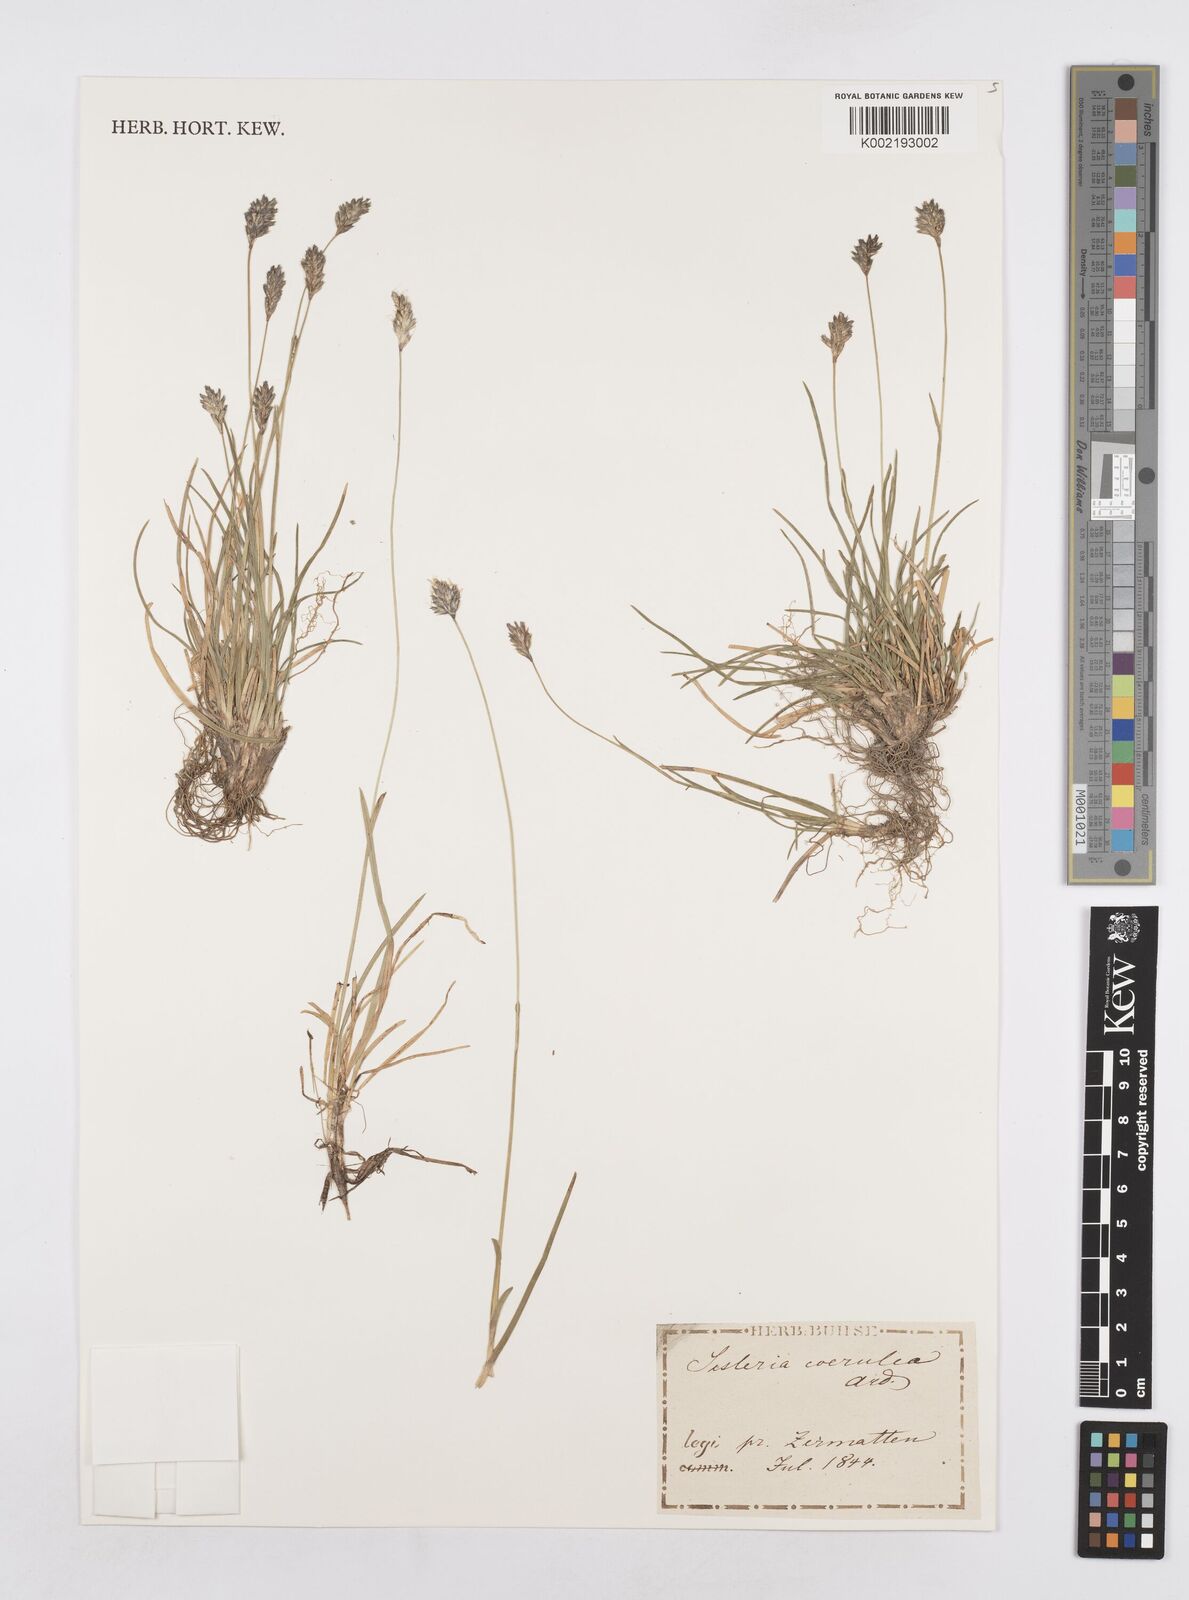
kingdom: Plantae
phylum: Tracheophyta
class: Liliopsida
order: Poales
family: Poaceae
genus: Sesleria
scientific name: Sesleria caerulea
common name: Blue moor-grass
